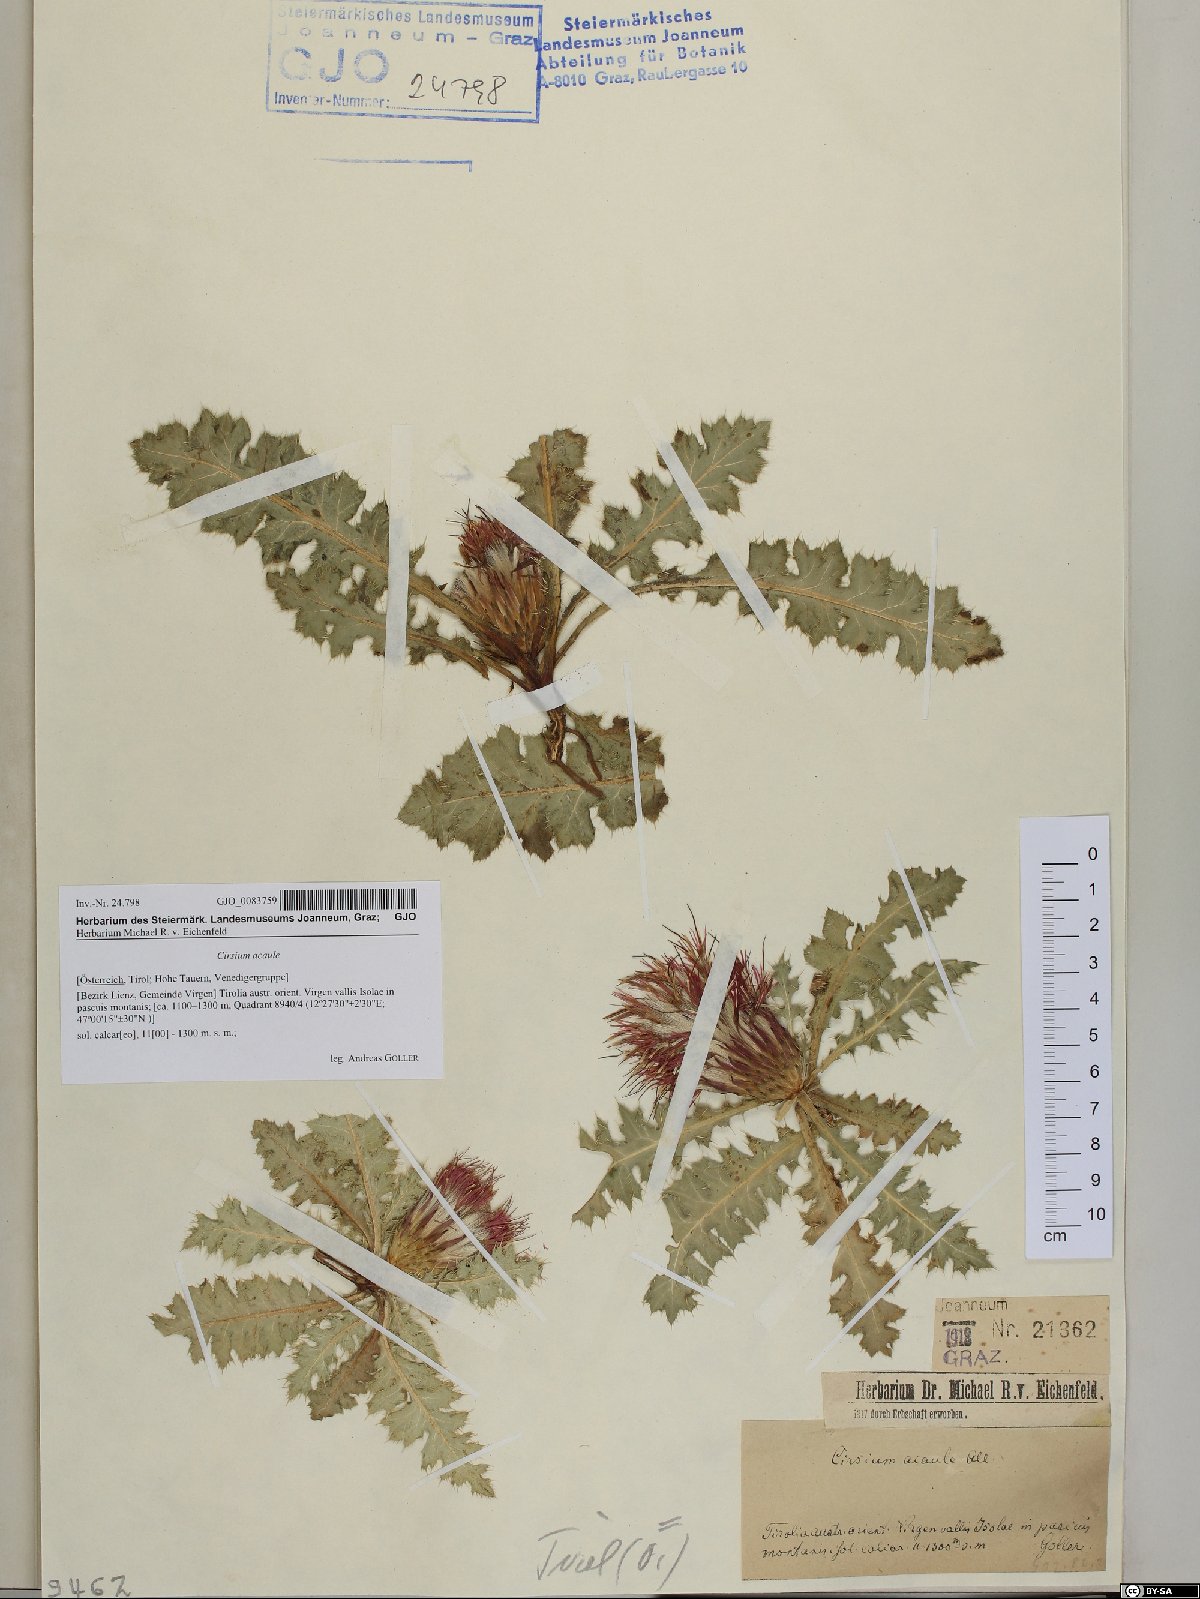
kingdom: Plantae
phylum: Tracheophyta
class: Magnoliopsida
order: Asterales
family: Asteraceae
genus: Cirsium
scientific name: Cirsium acaule
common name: Dwarf thistle
